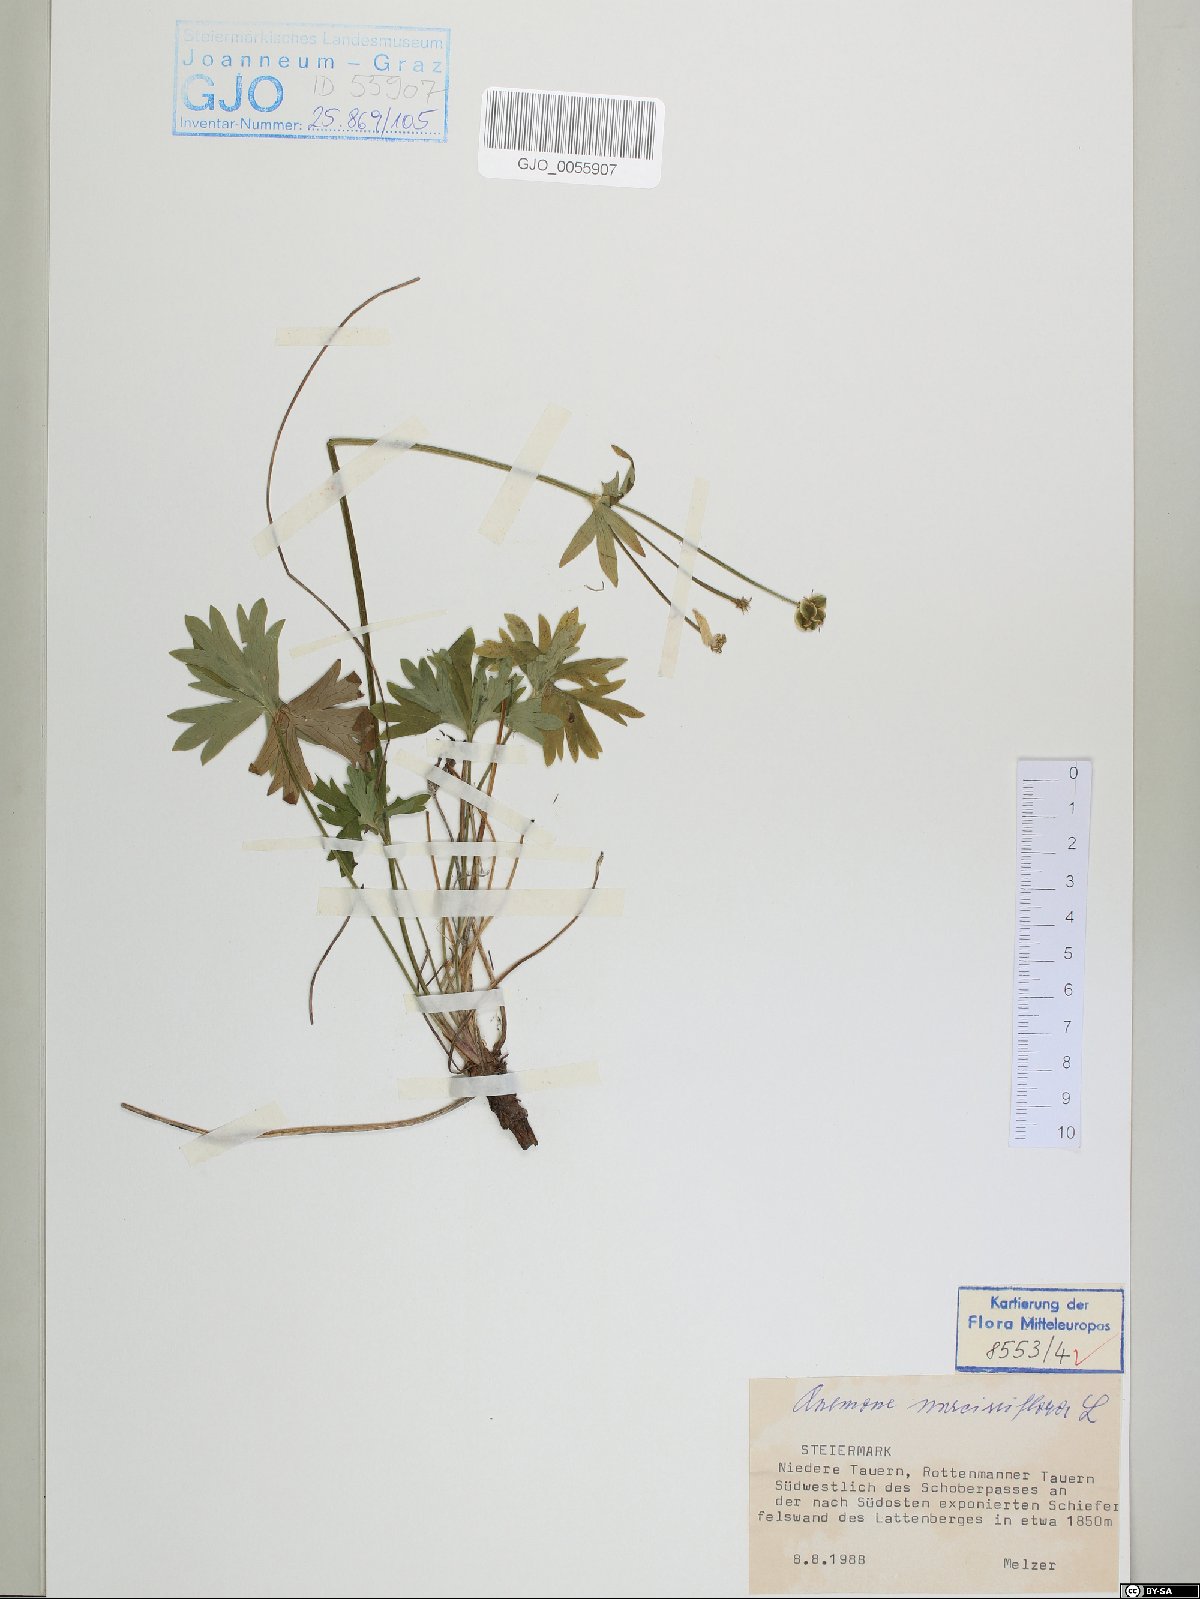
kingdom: Plantae
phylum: Tracheophyta
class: Magnoliopsida
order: Ranunculales
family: Ranunculaceae
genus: Anemonastrum
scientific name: Anemonastrum narcissiflorum
